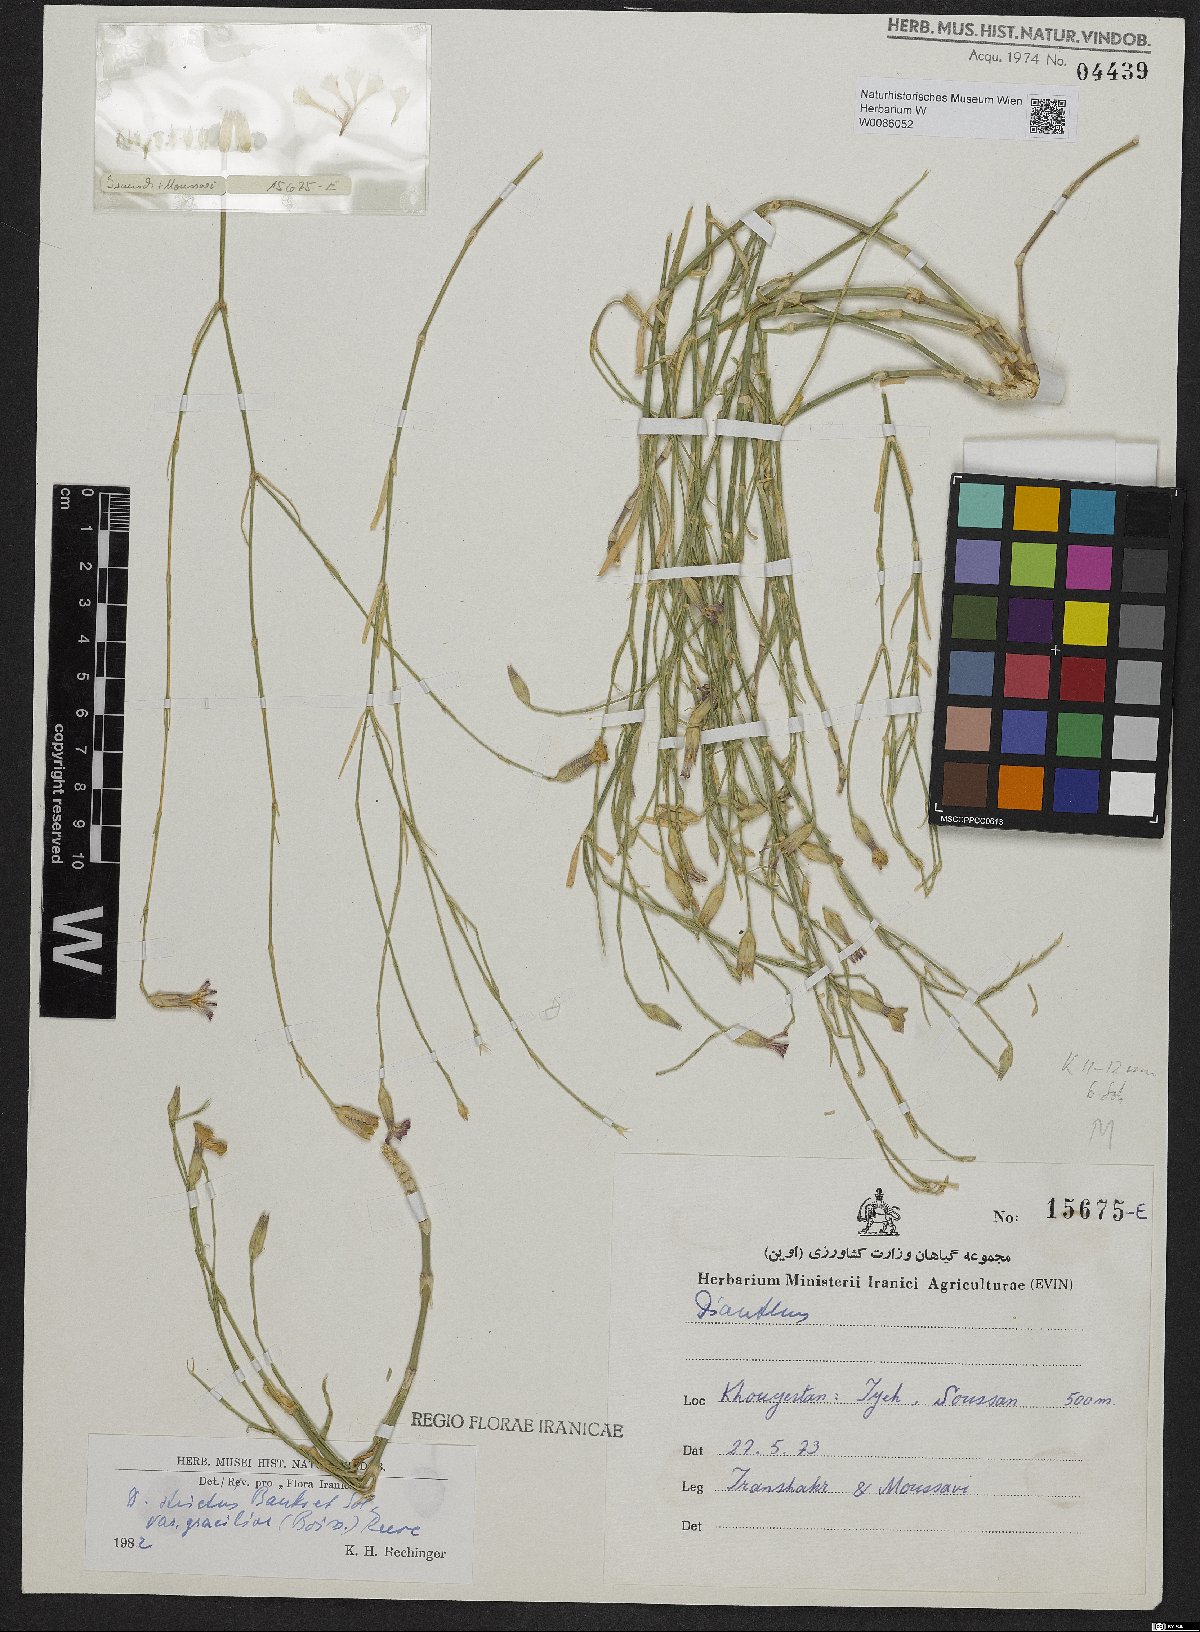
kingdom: Plantae
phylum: Tracheophyta
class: Magnoliopsida
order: Caryophyllales
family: Caryophyllaceae
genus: Dianthus
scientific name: Dianthus strictus
